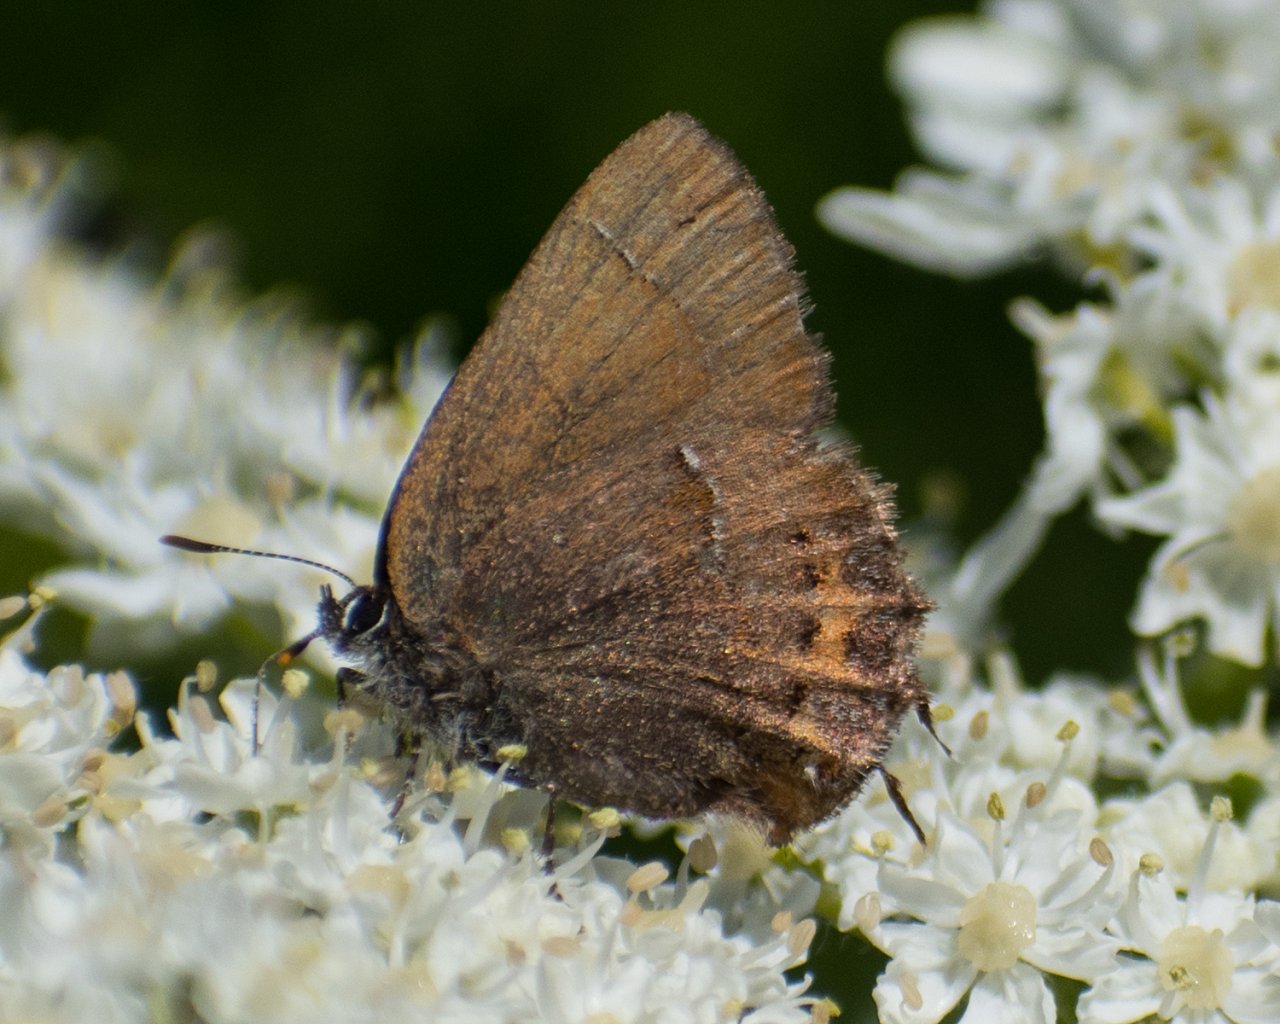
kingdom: Animalia
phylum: Arthropoda
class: Insecta
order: Lepidoptera
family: Lycaenidae
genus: Mitoura
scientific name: Mitoura nelsoni
